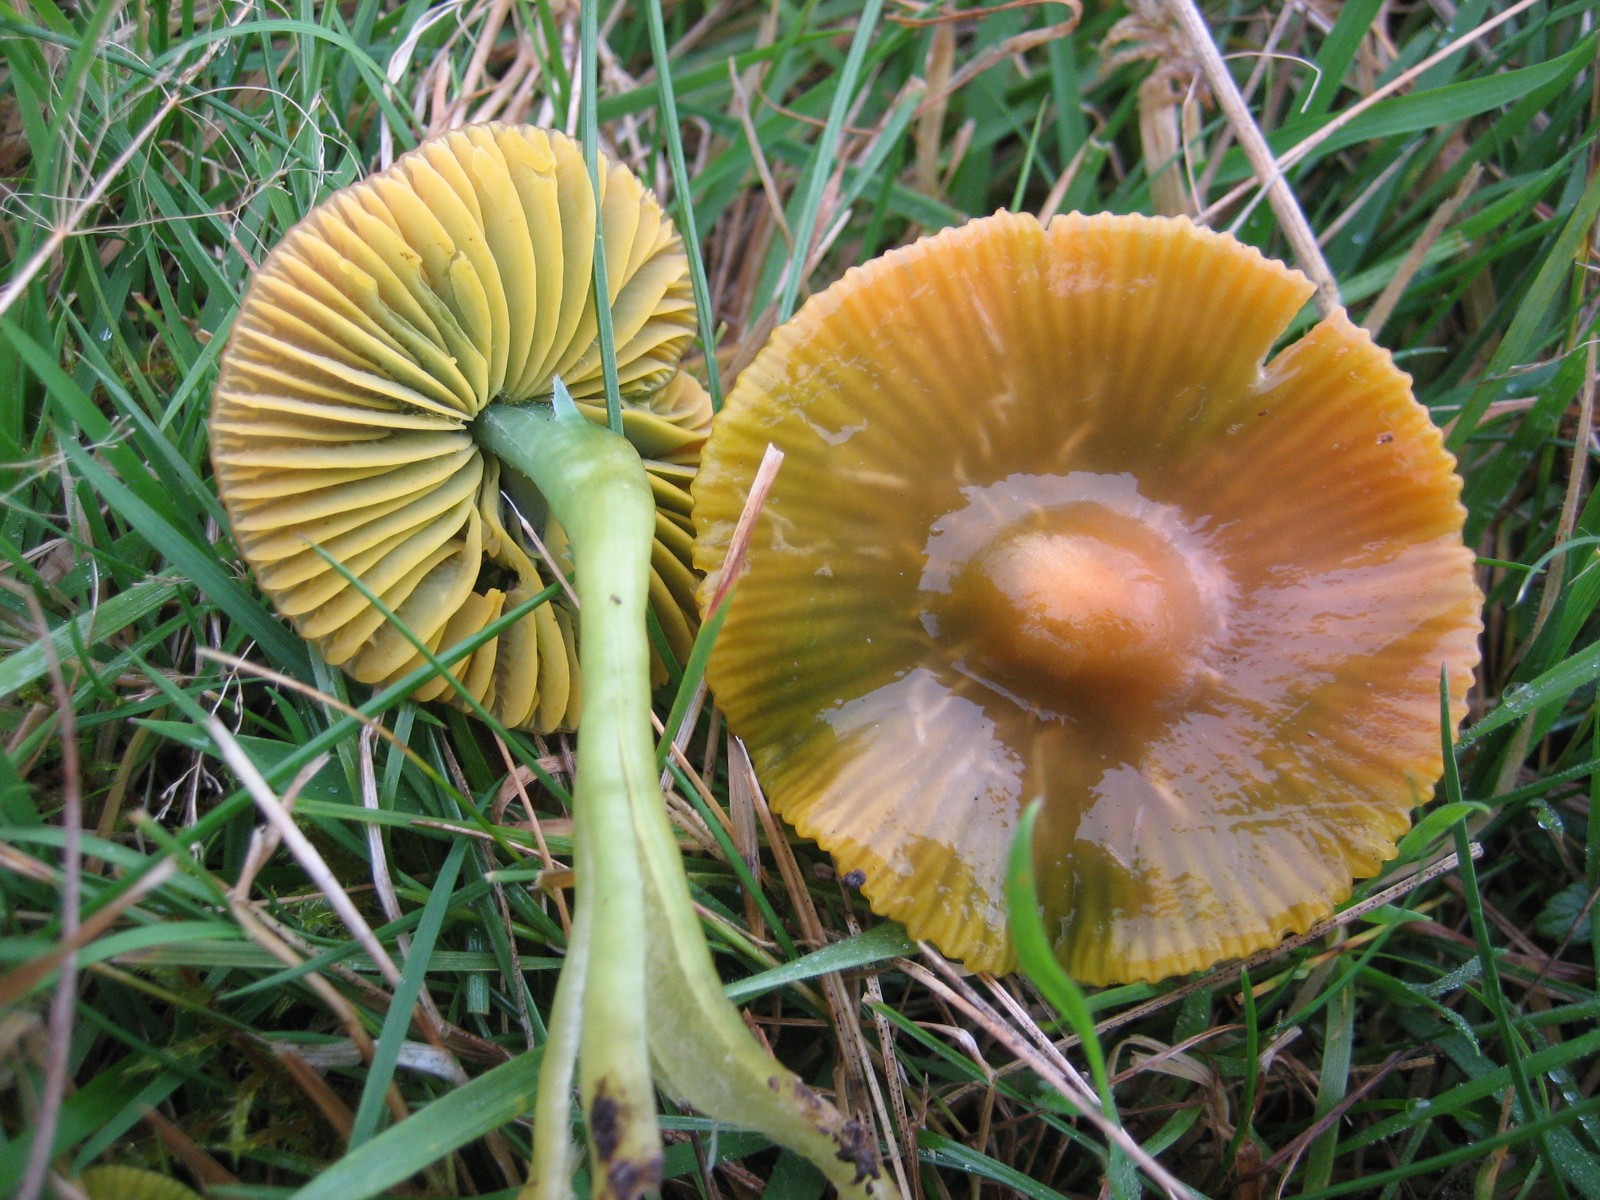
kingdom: Fungi
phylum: Basidiomycota
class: Agaricomycetes
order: Agaricales
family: Hygrophoraceae
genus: Gliophorus
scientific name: Gliophorus psittacinus
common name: papegøje-vokshat
